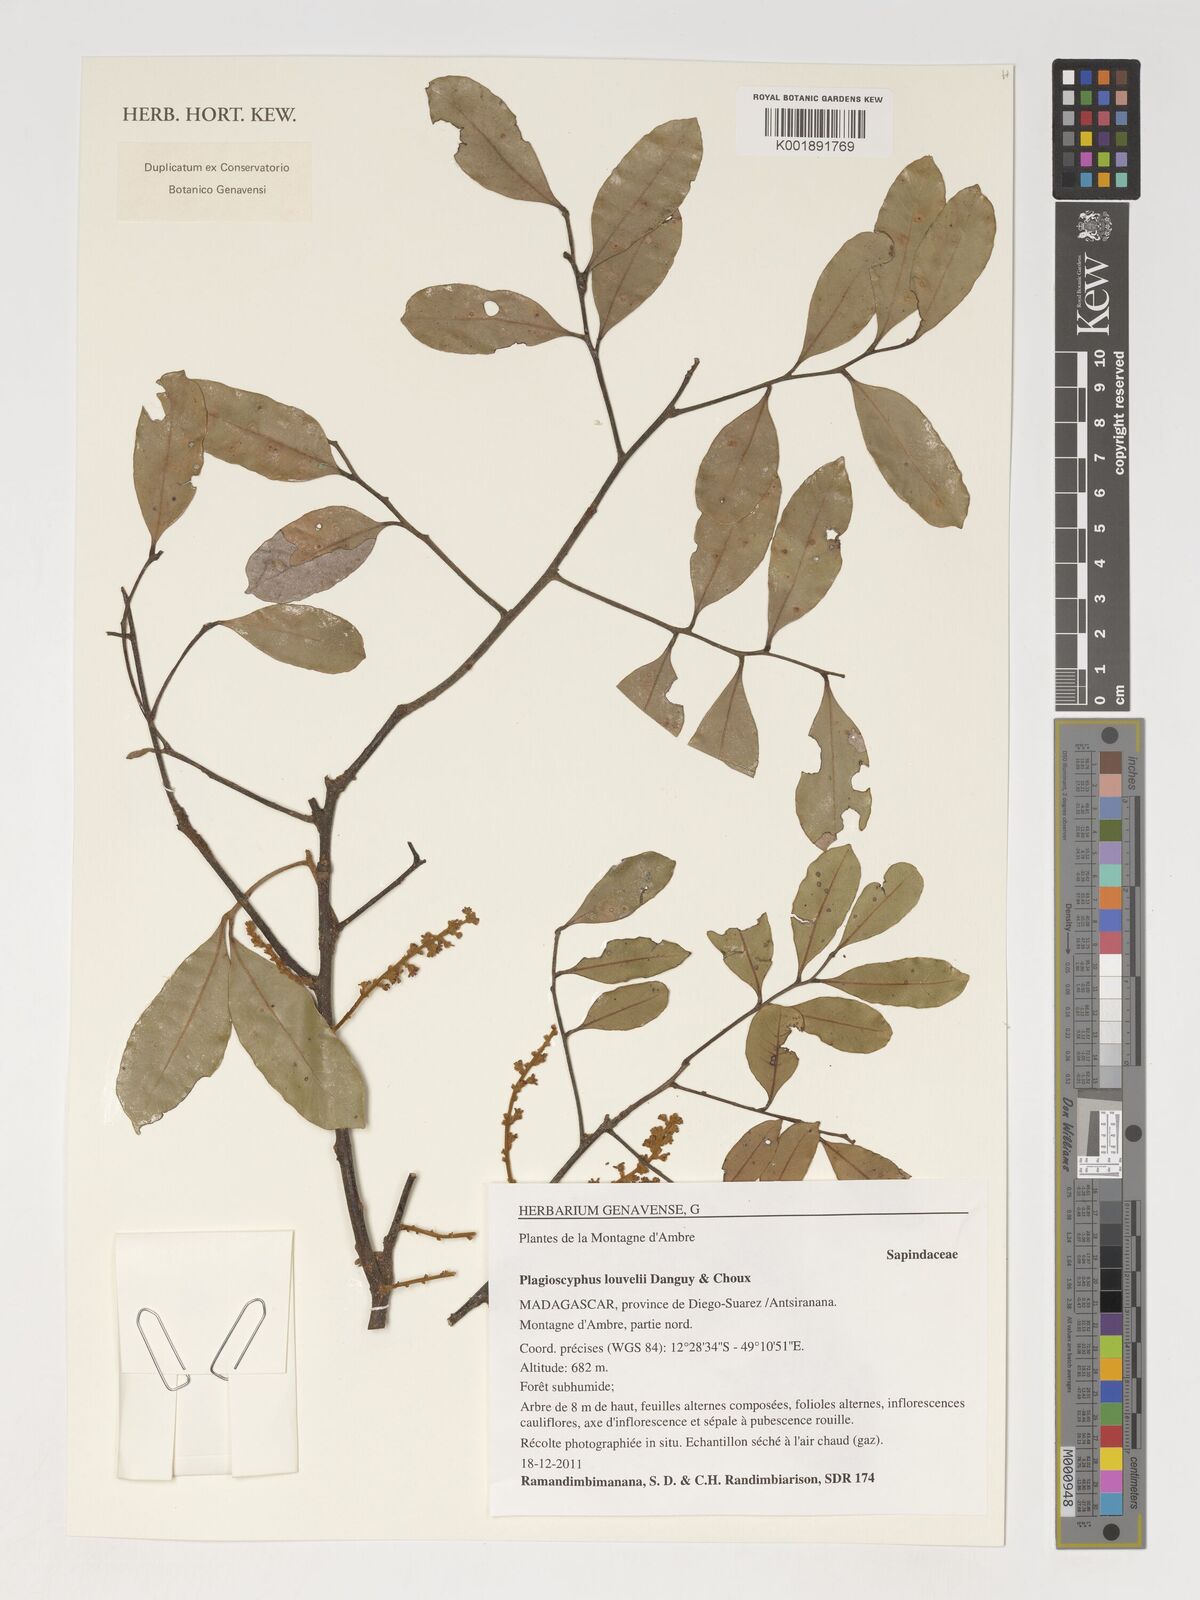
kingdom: Plantae
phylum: Tracheophyta
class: Magnoliopsida
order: Sapindales
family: Sapindaceae
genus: Plagioscyphus
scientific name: Plagioscyphus louvelii
